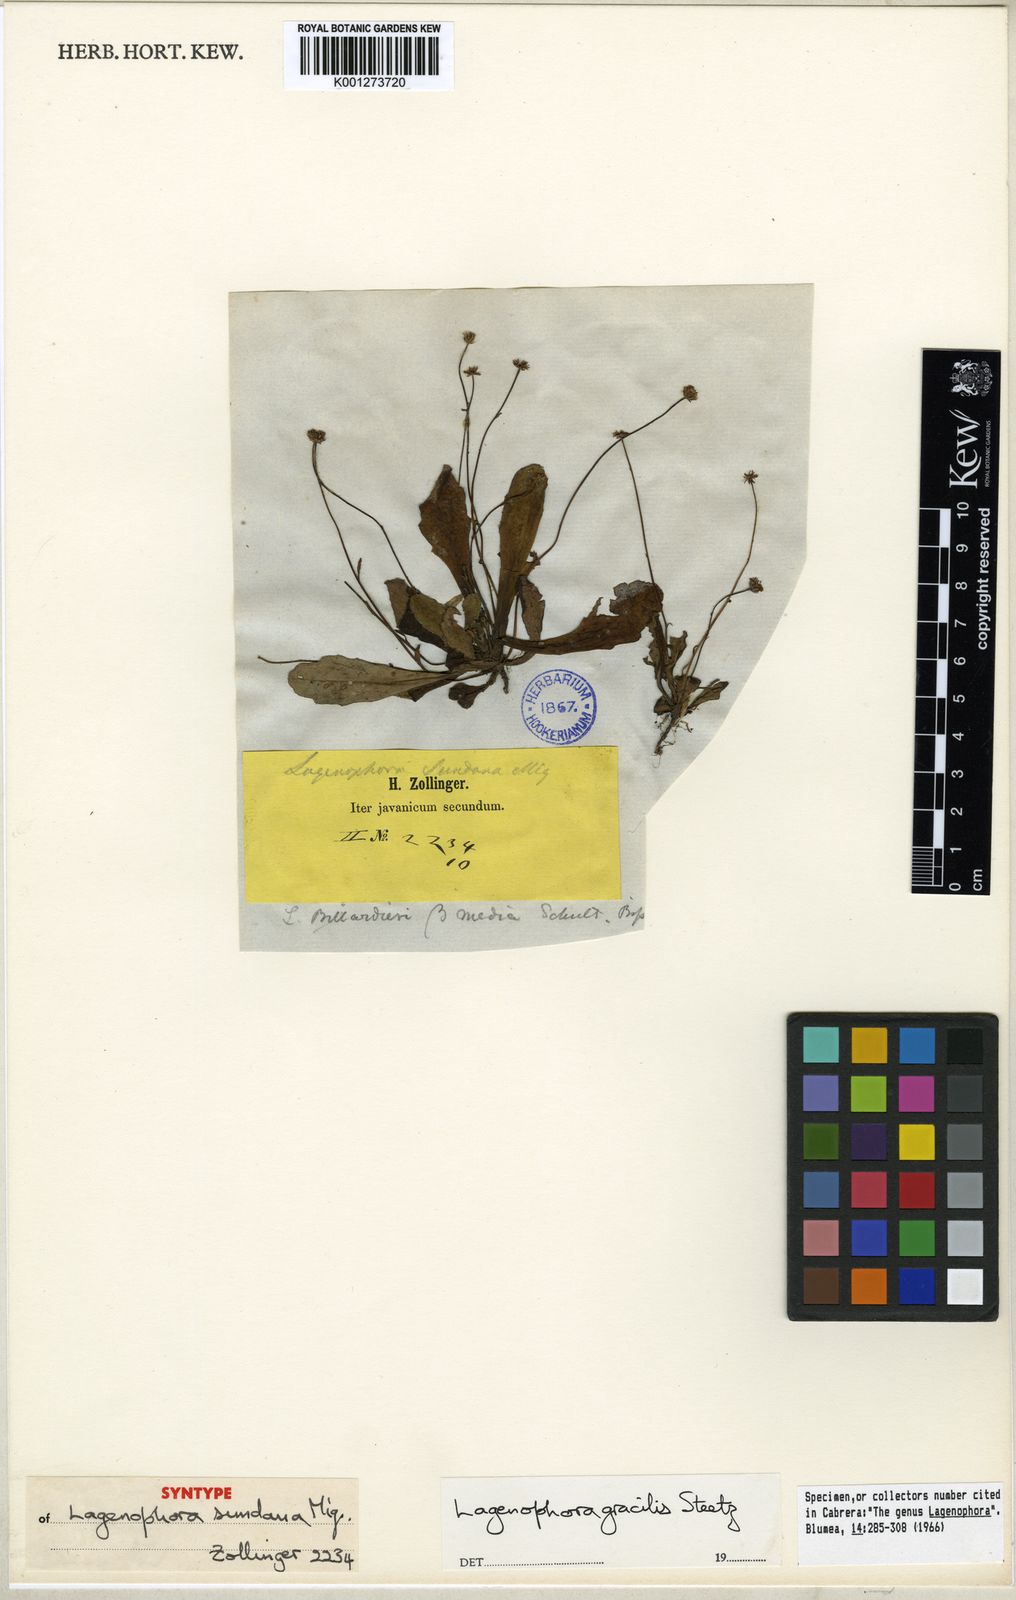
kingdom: Plantae
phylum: Tracheophyta
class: Magnoliopsida
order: Asterales
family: Asteraceae
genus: Lagenophora
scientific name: Lagenophora gracilis
